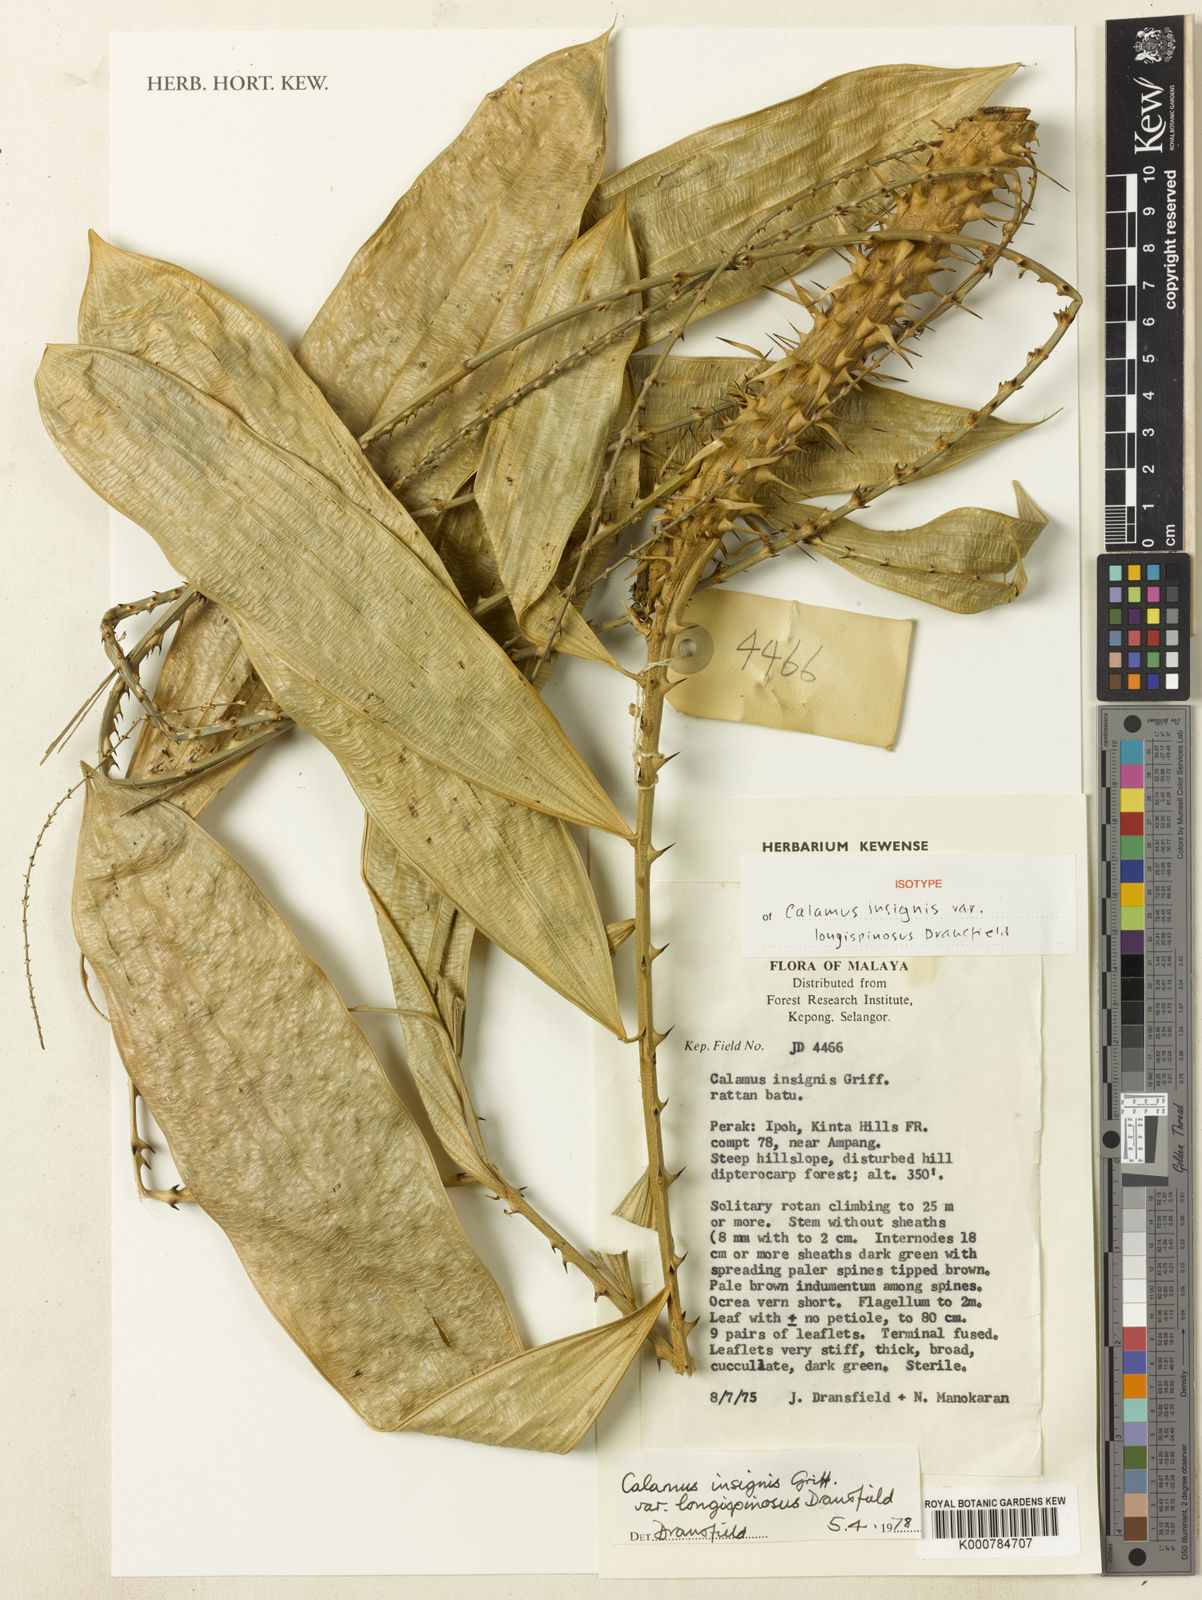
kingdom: Plantae
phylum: Tracheophyta
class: Liliopsida
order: Arecales
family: Arecaceae
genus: Calamus
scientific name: Calamus longiusculus
